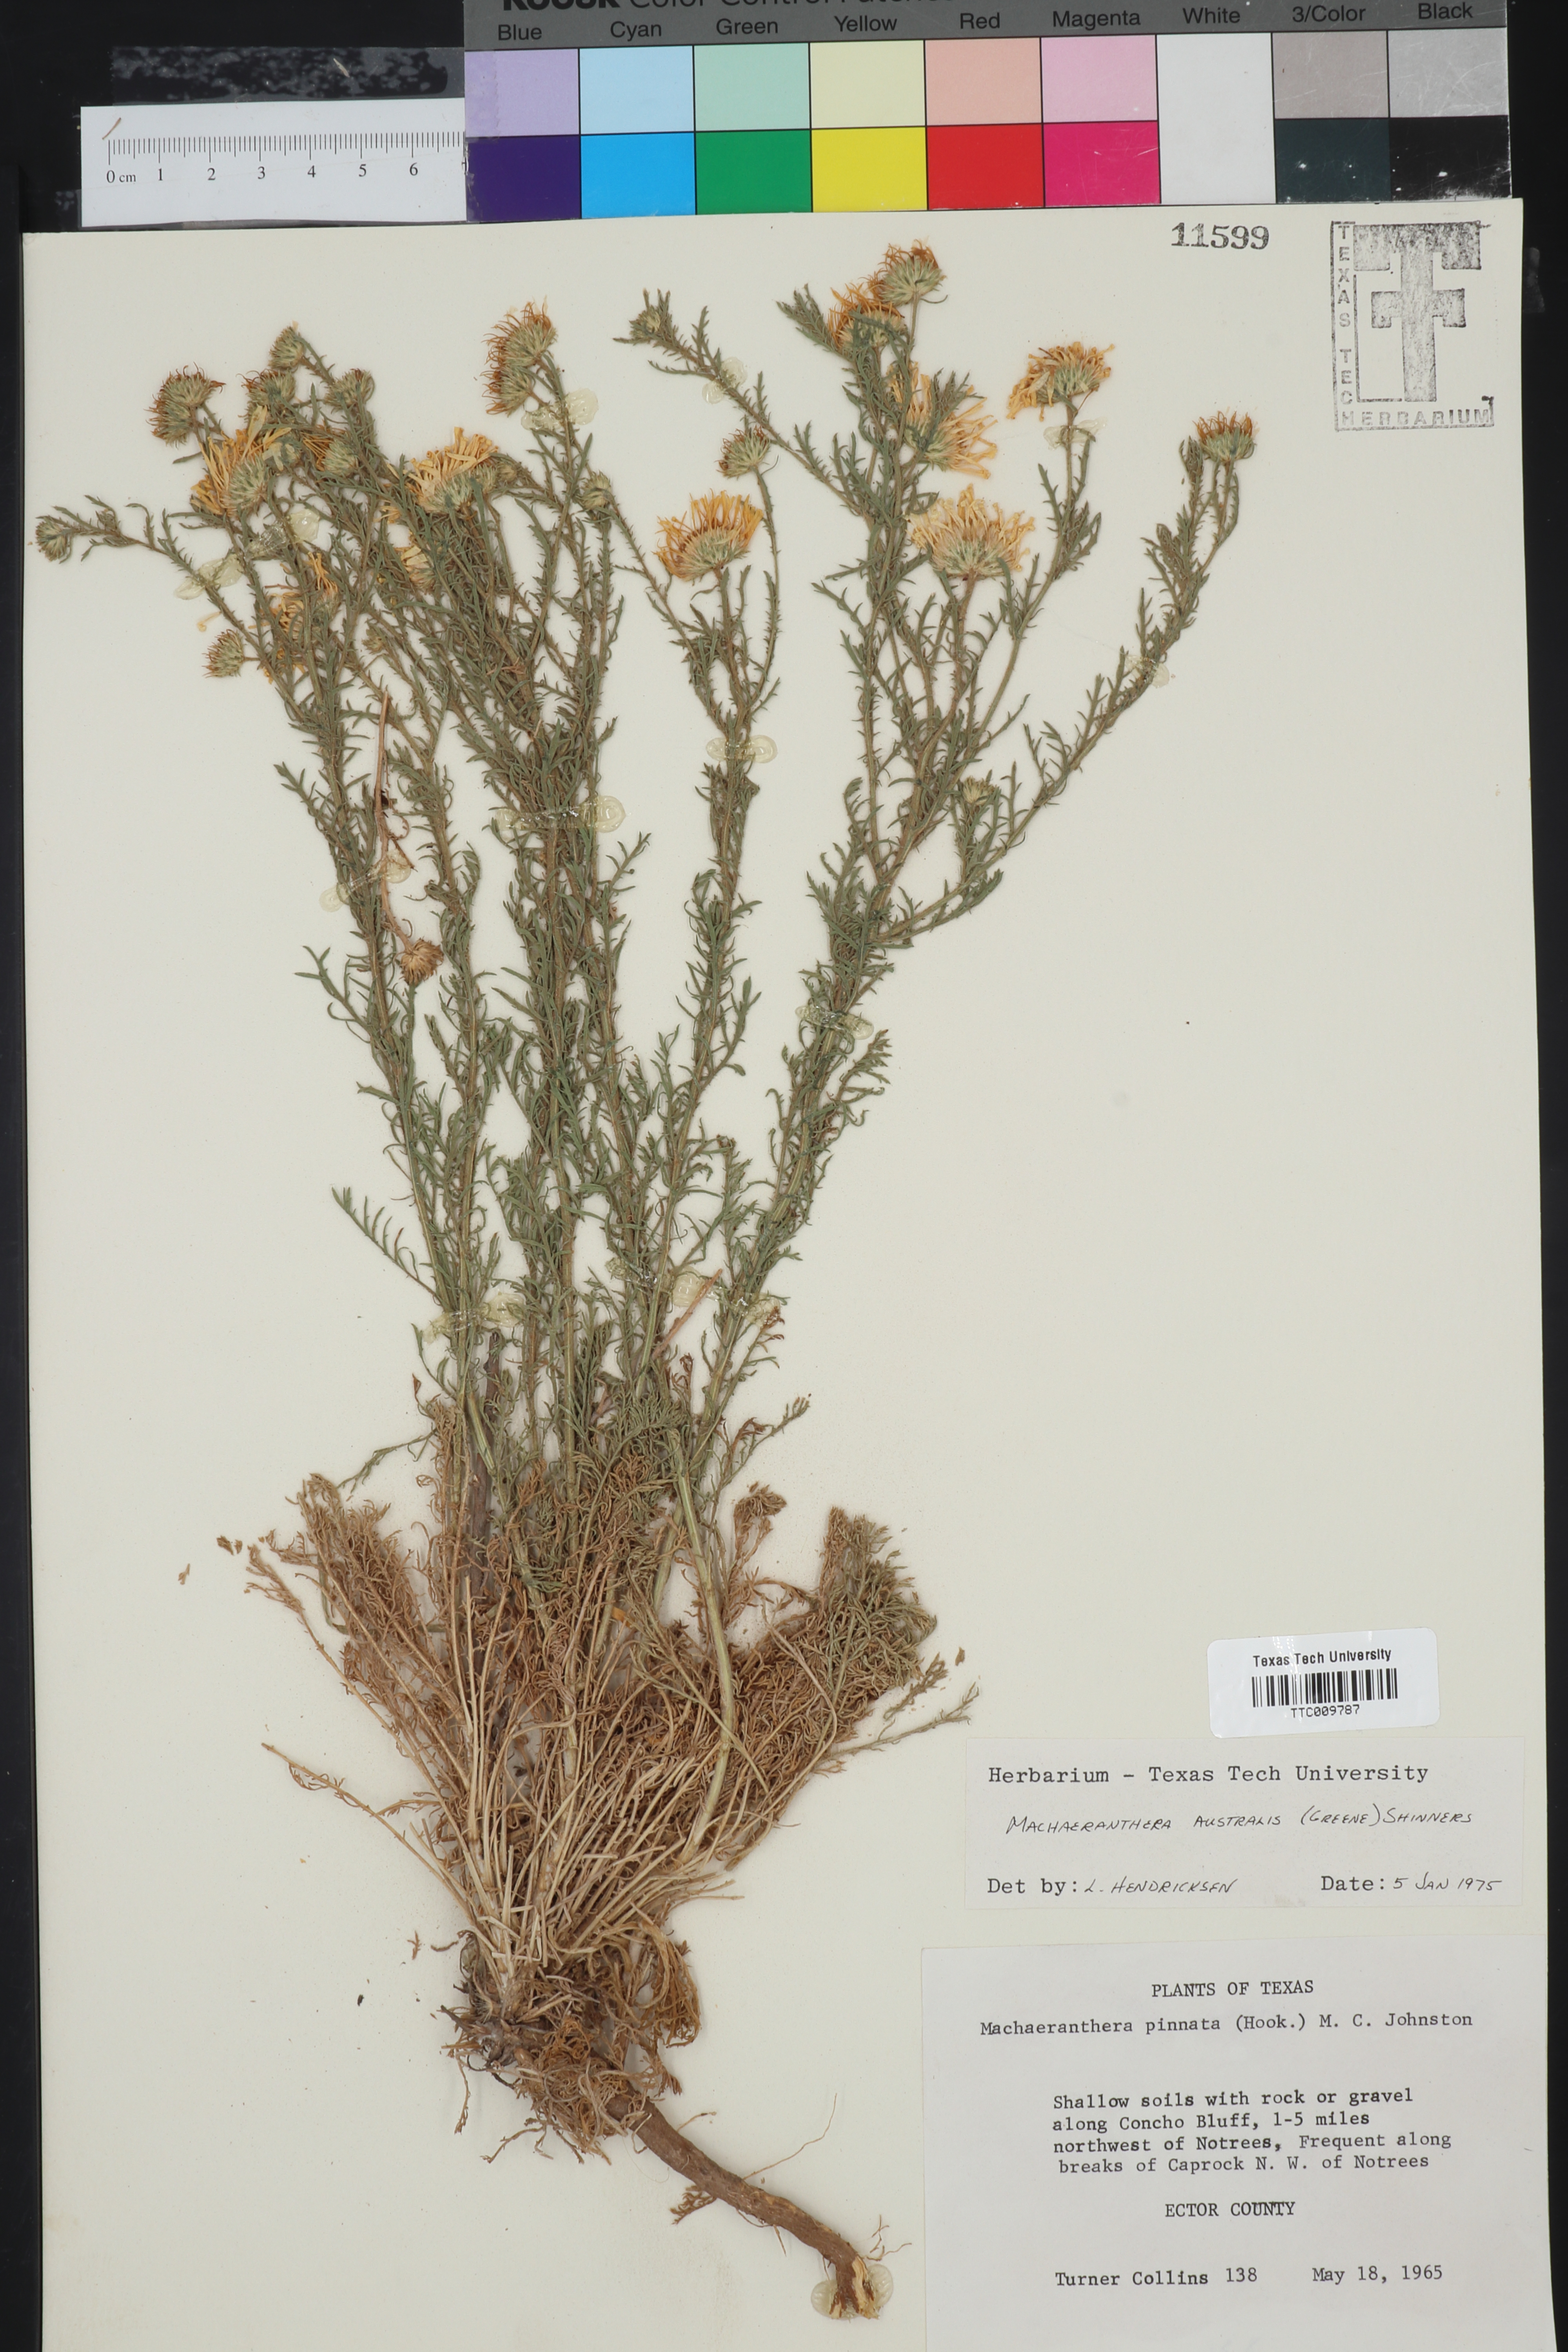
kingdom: Plantae
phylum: Tracheophyta
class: Magnoliopsida
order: Asterales
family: Asteraceae
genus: Xanthisma
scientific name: Xanthisma spinulosum
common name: Spiny goldenweed
